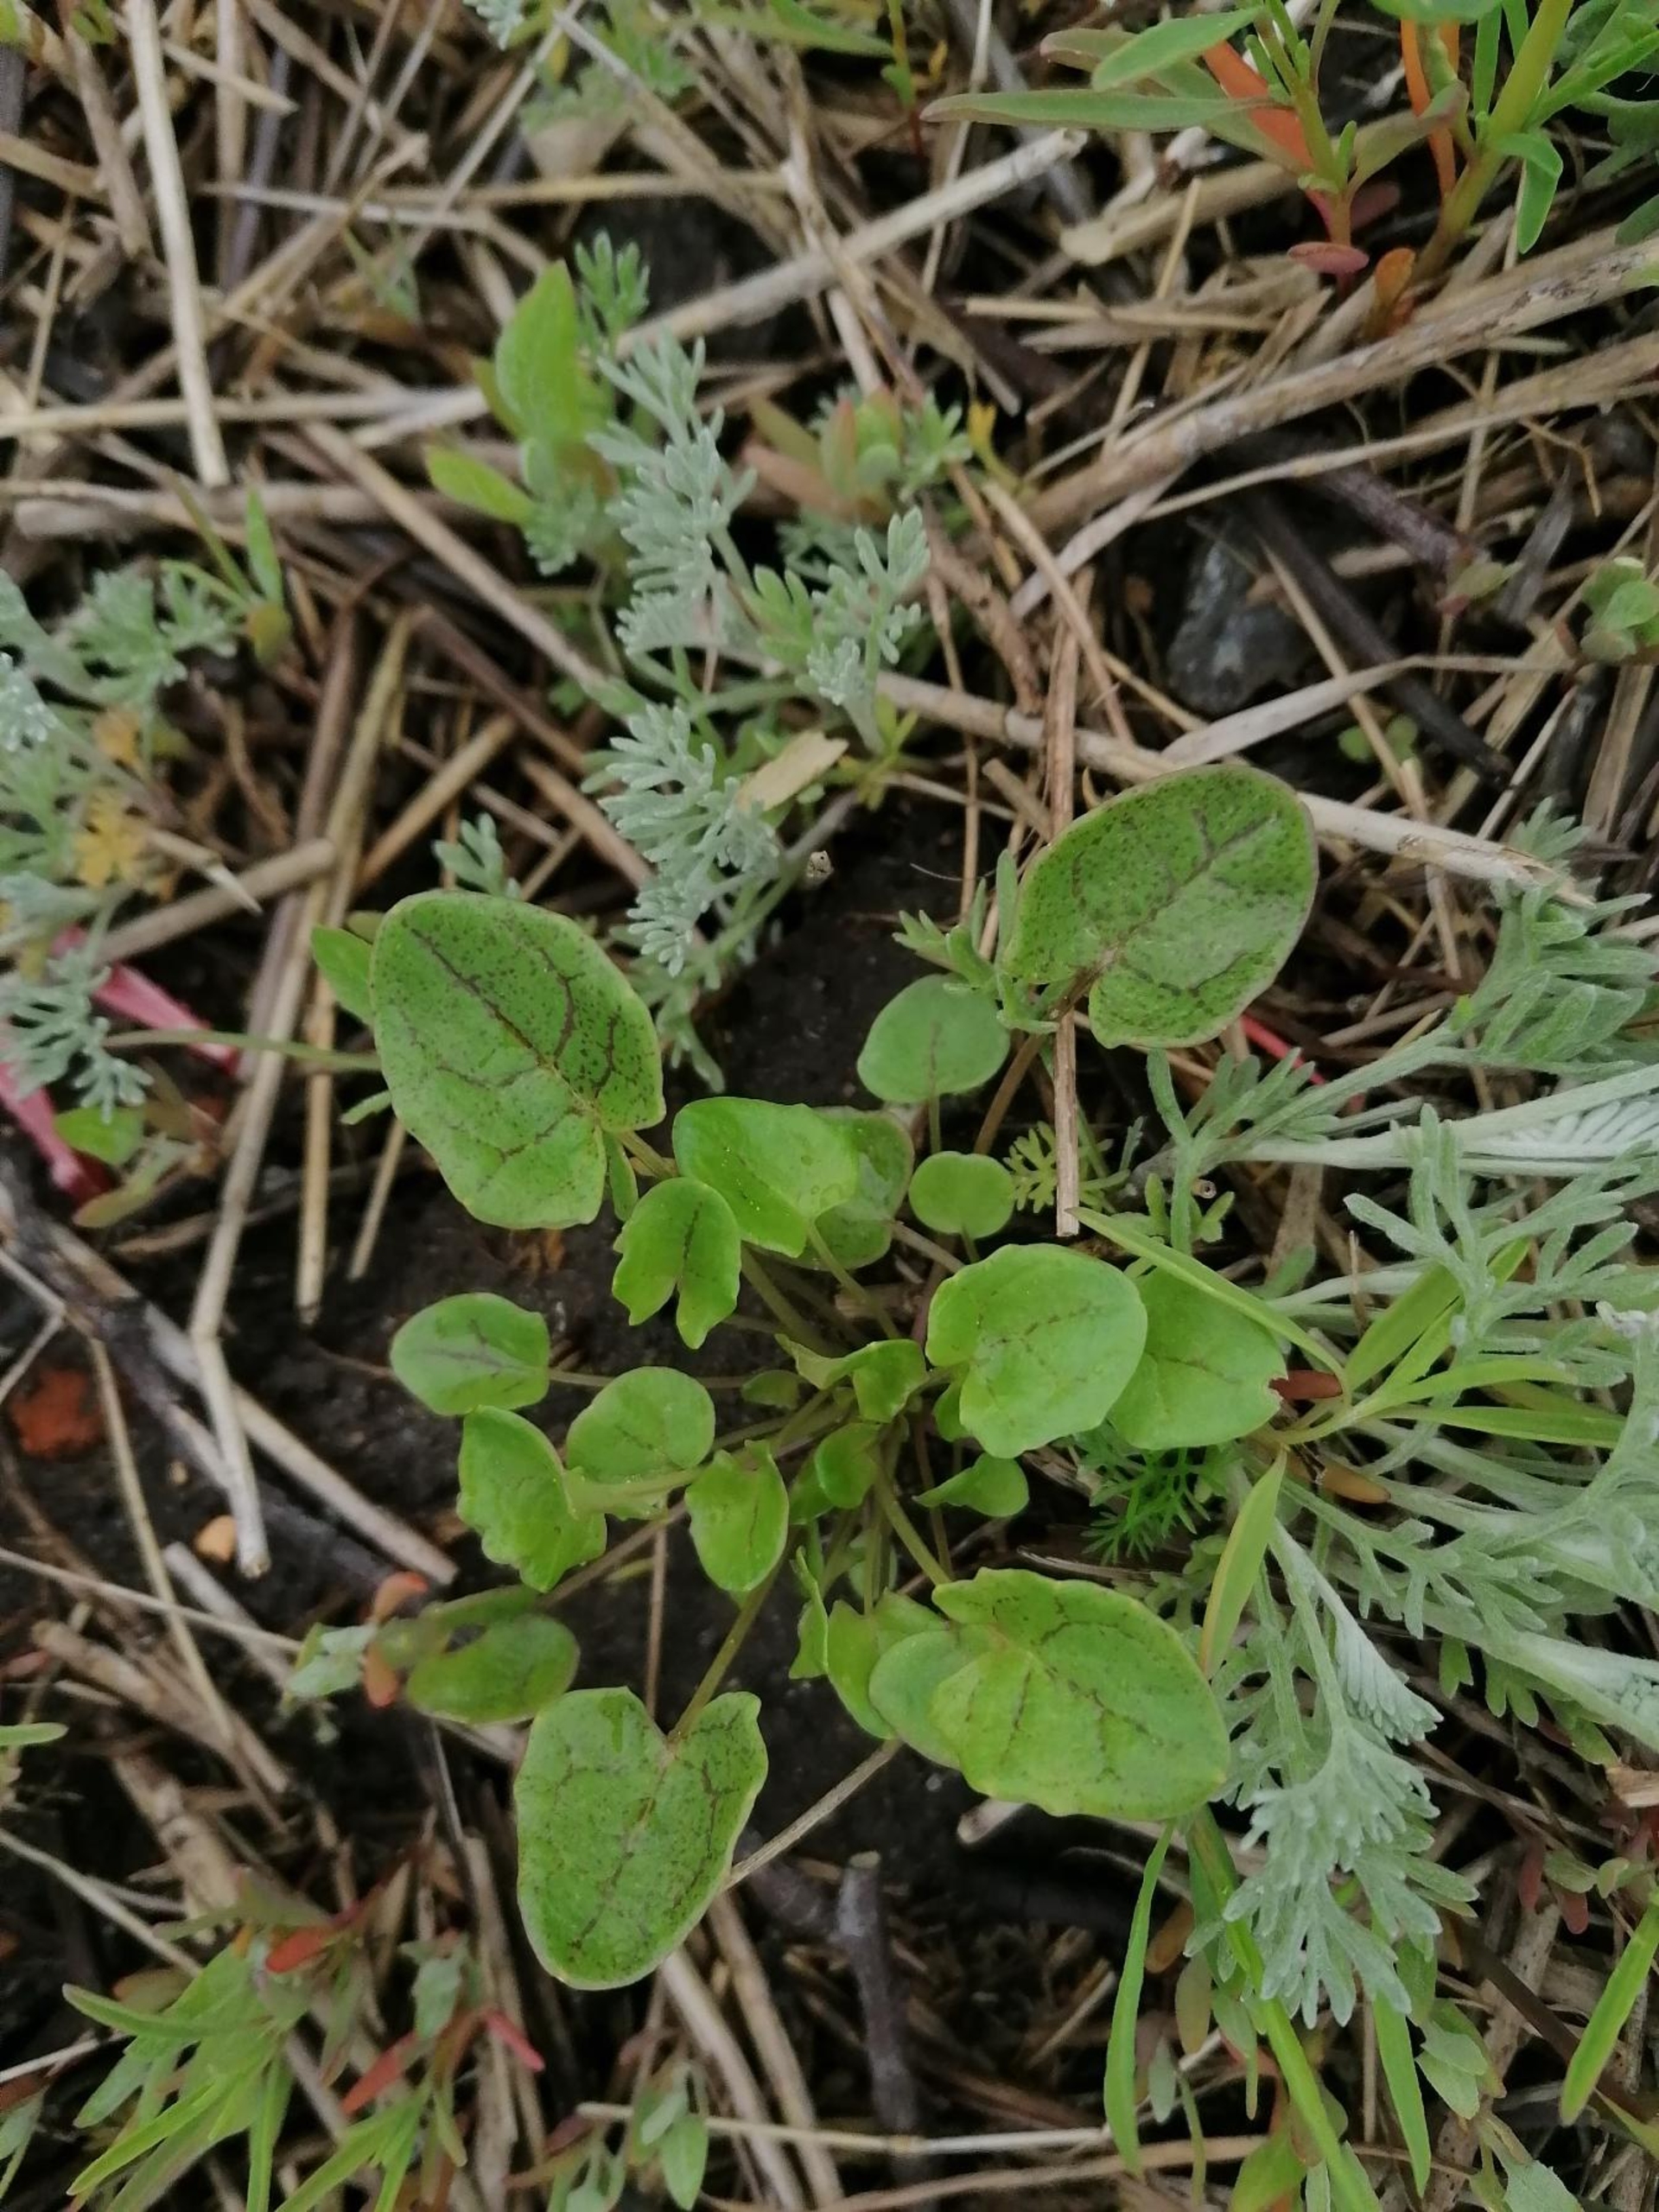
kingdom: Plantae
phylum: Tracheophyta
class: Magnoliopsida
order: Brassicales
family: Brassicaceae
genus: Cochlearia
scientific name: Cochlearia officinalis
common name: Læge-kokleare
